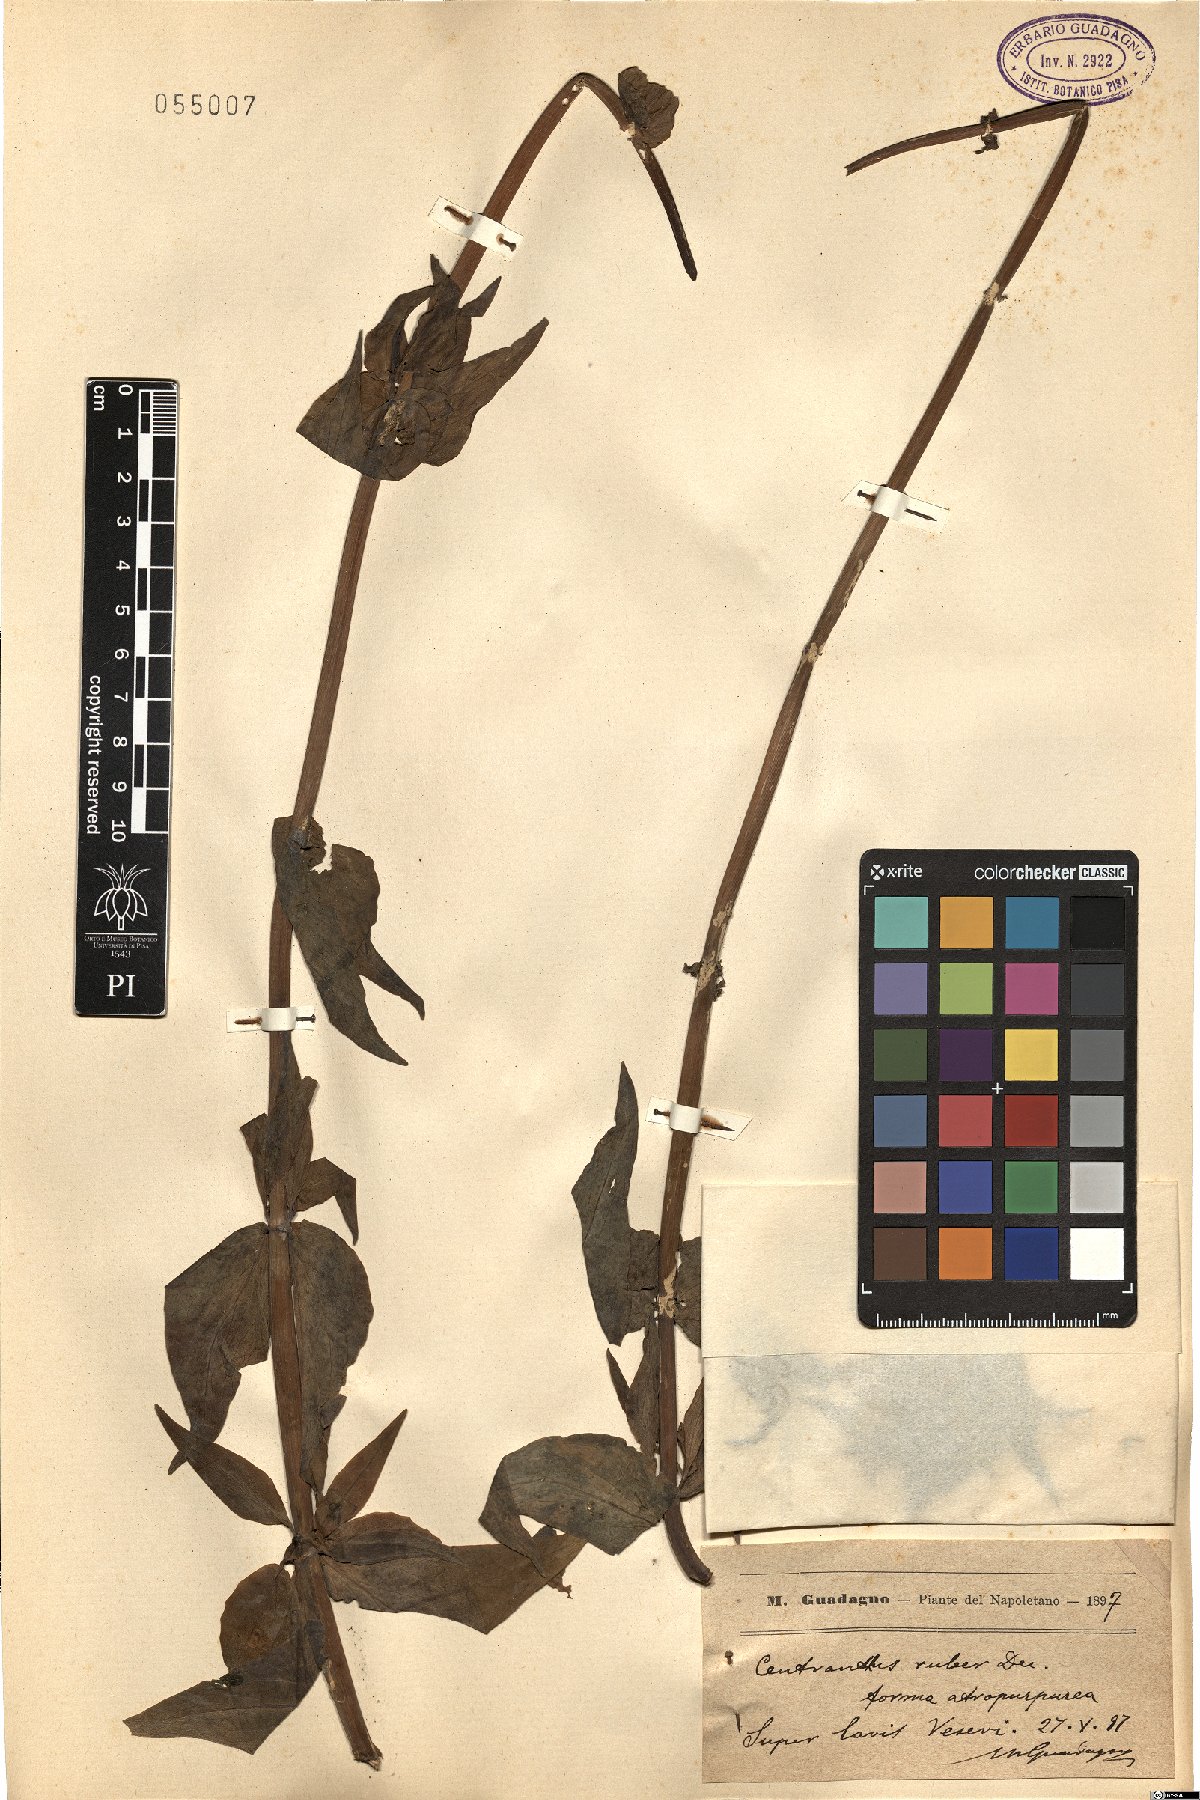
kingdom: Plantae
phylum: Tracheophyta
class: Magnoliopsida
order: Dipsacales
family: Caprifoliaceae
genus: Centranthus
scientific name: Centranthus ruber
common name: Red valerian
